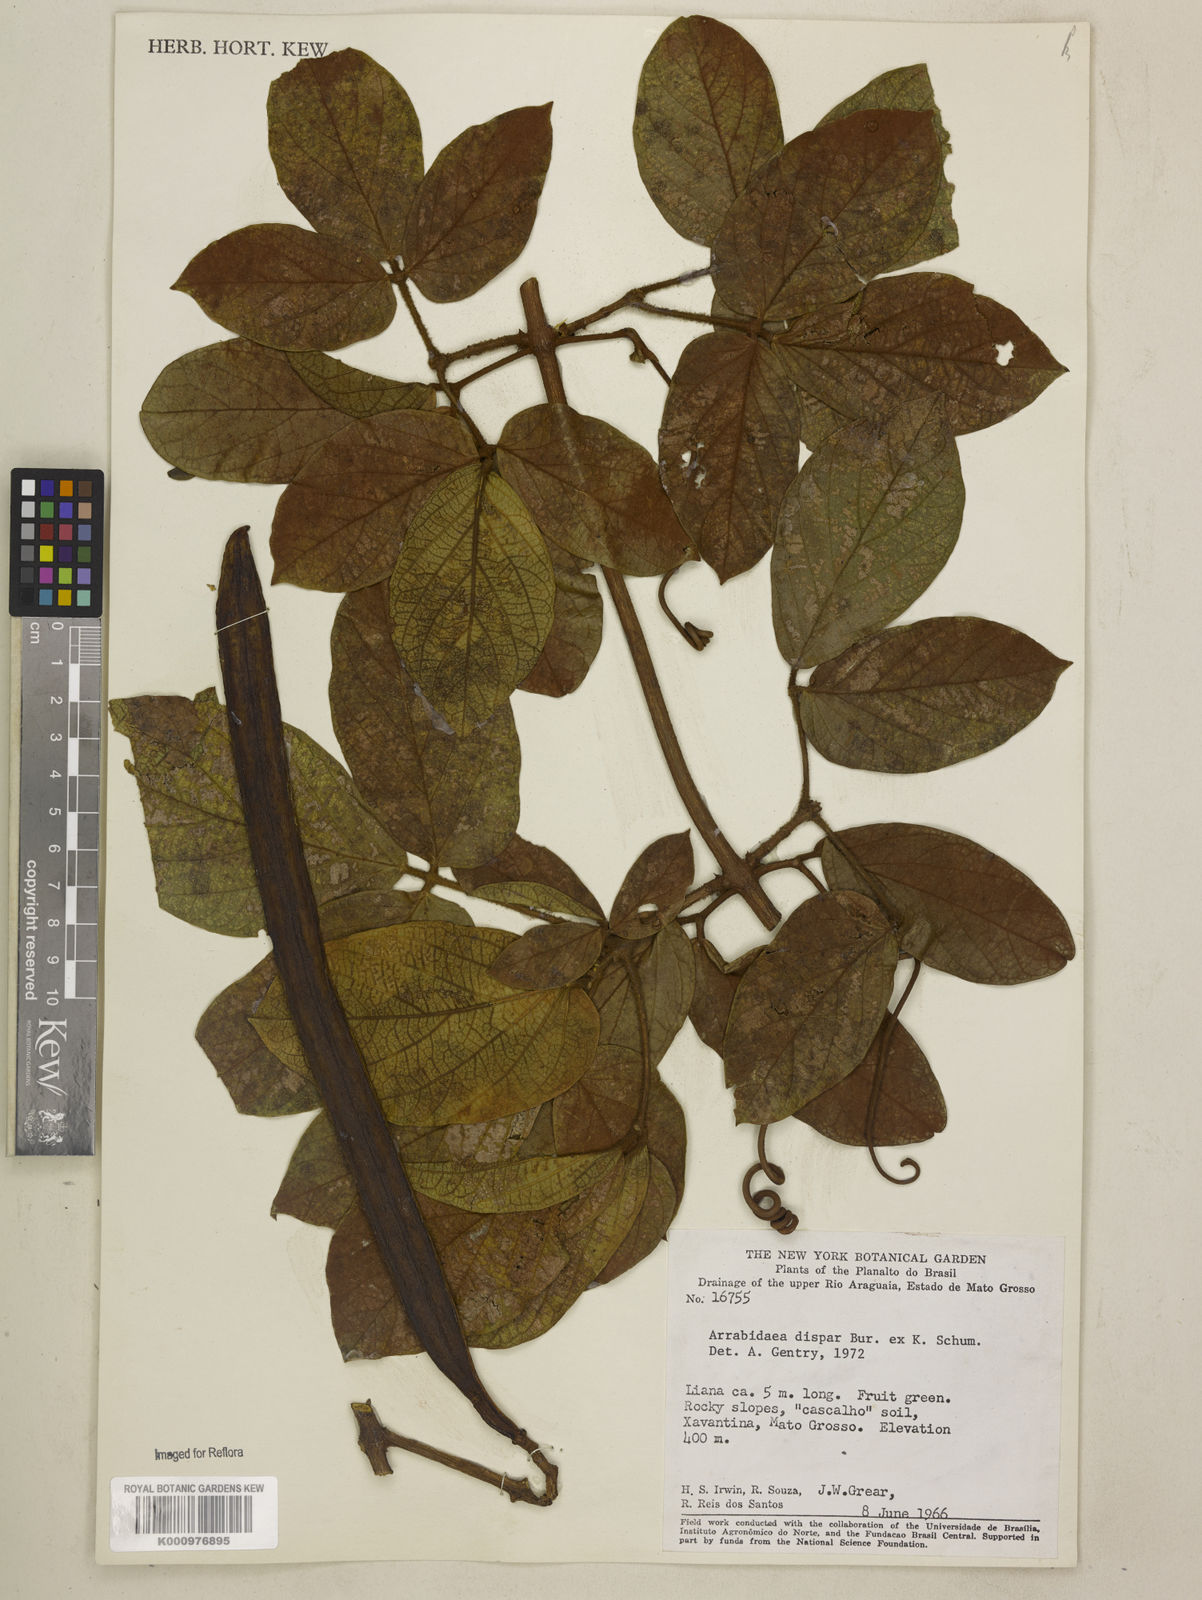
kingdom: Plantae
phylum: Tracheophyta
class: Magnoliopsida
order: Lamiales
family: Bignoniaceae
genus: Fridericia
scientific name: Fridericia dispar
